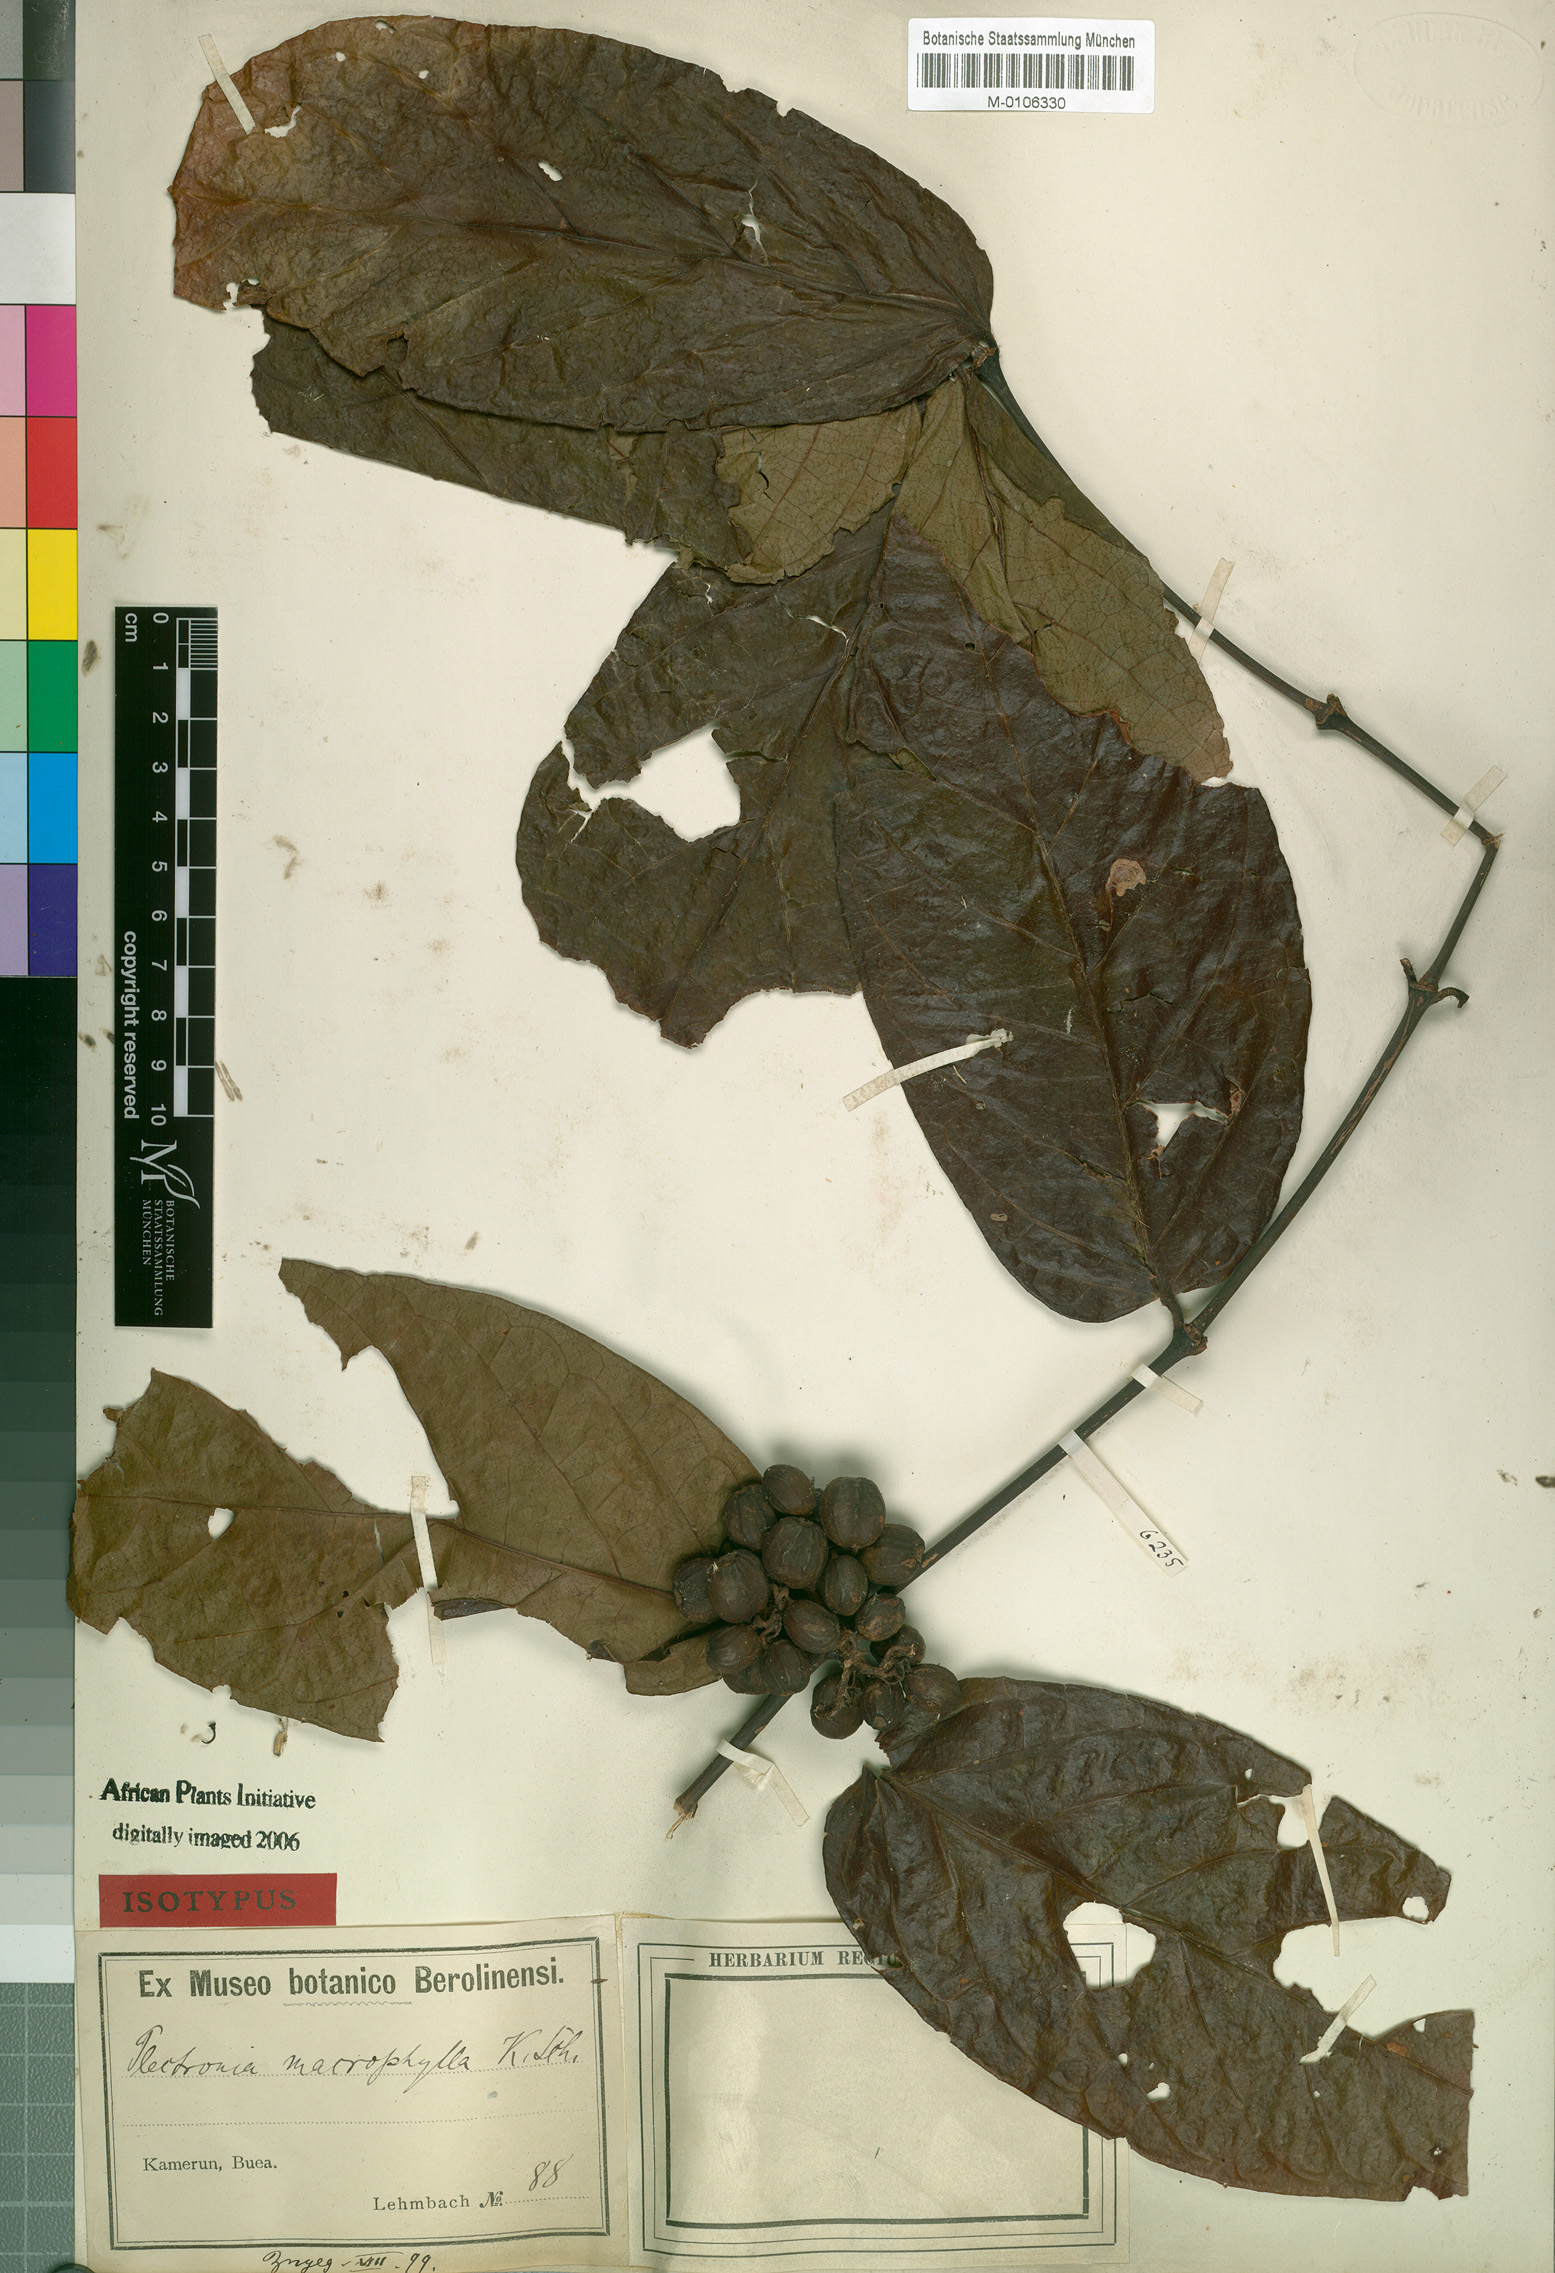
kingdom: Plantae
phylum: Tracheophyta
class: Magnoliopsida
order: Gentianales
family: Rubiaceae
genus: Keetia
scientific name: Keetia hispida
